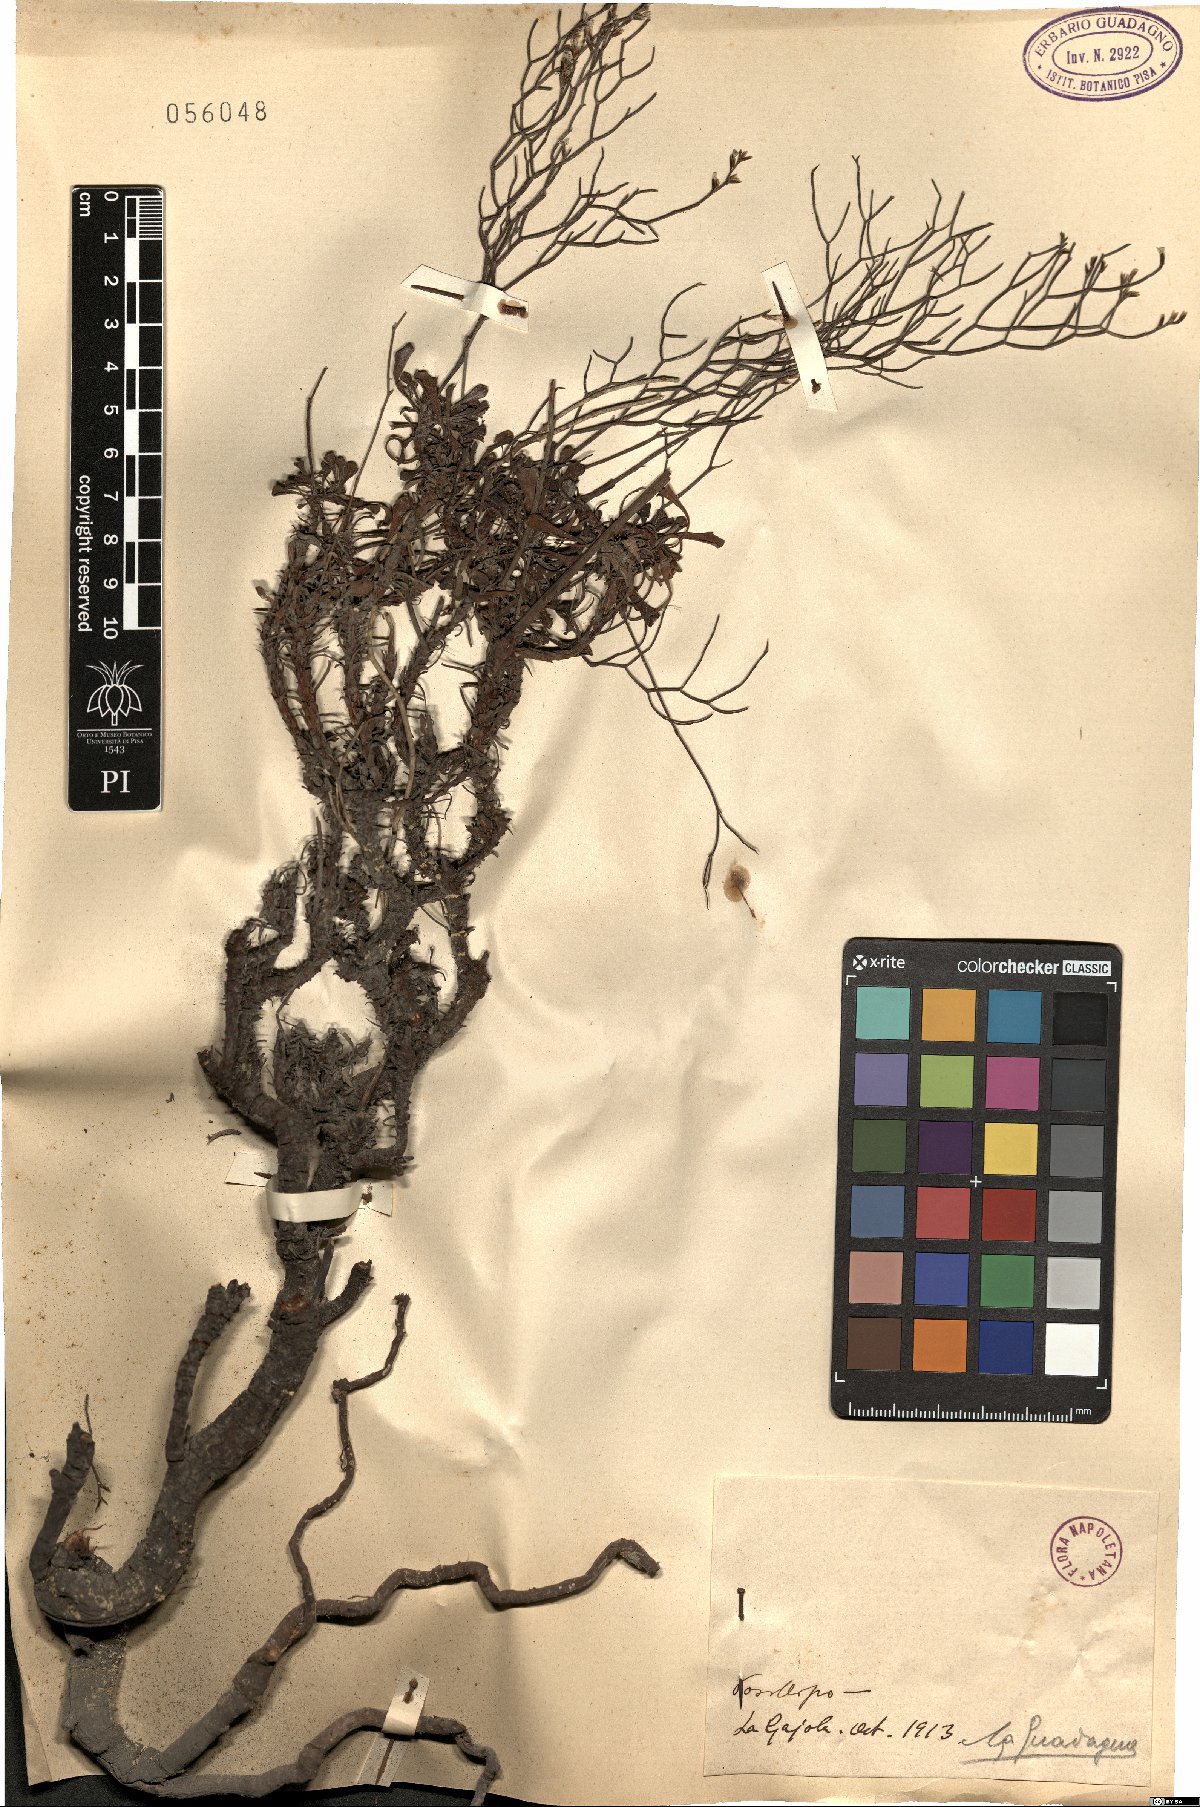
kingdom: Plantae
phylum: Tracheophyta
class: Magnoliopsida
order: Caryophyllales
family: Plumbaginaceae
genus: Armeria
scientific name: Armeria
